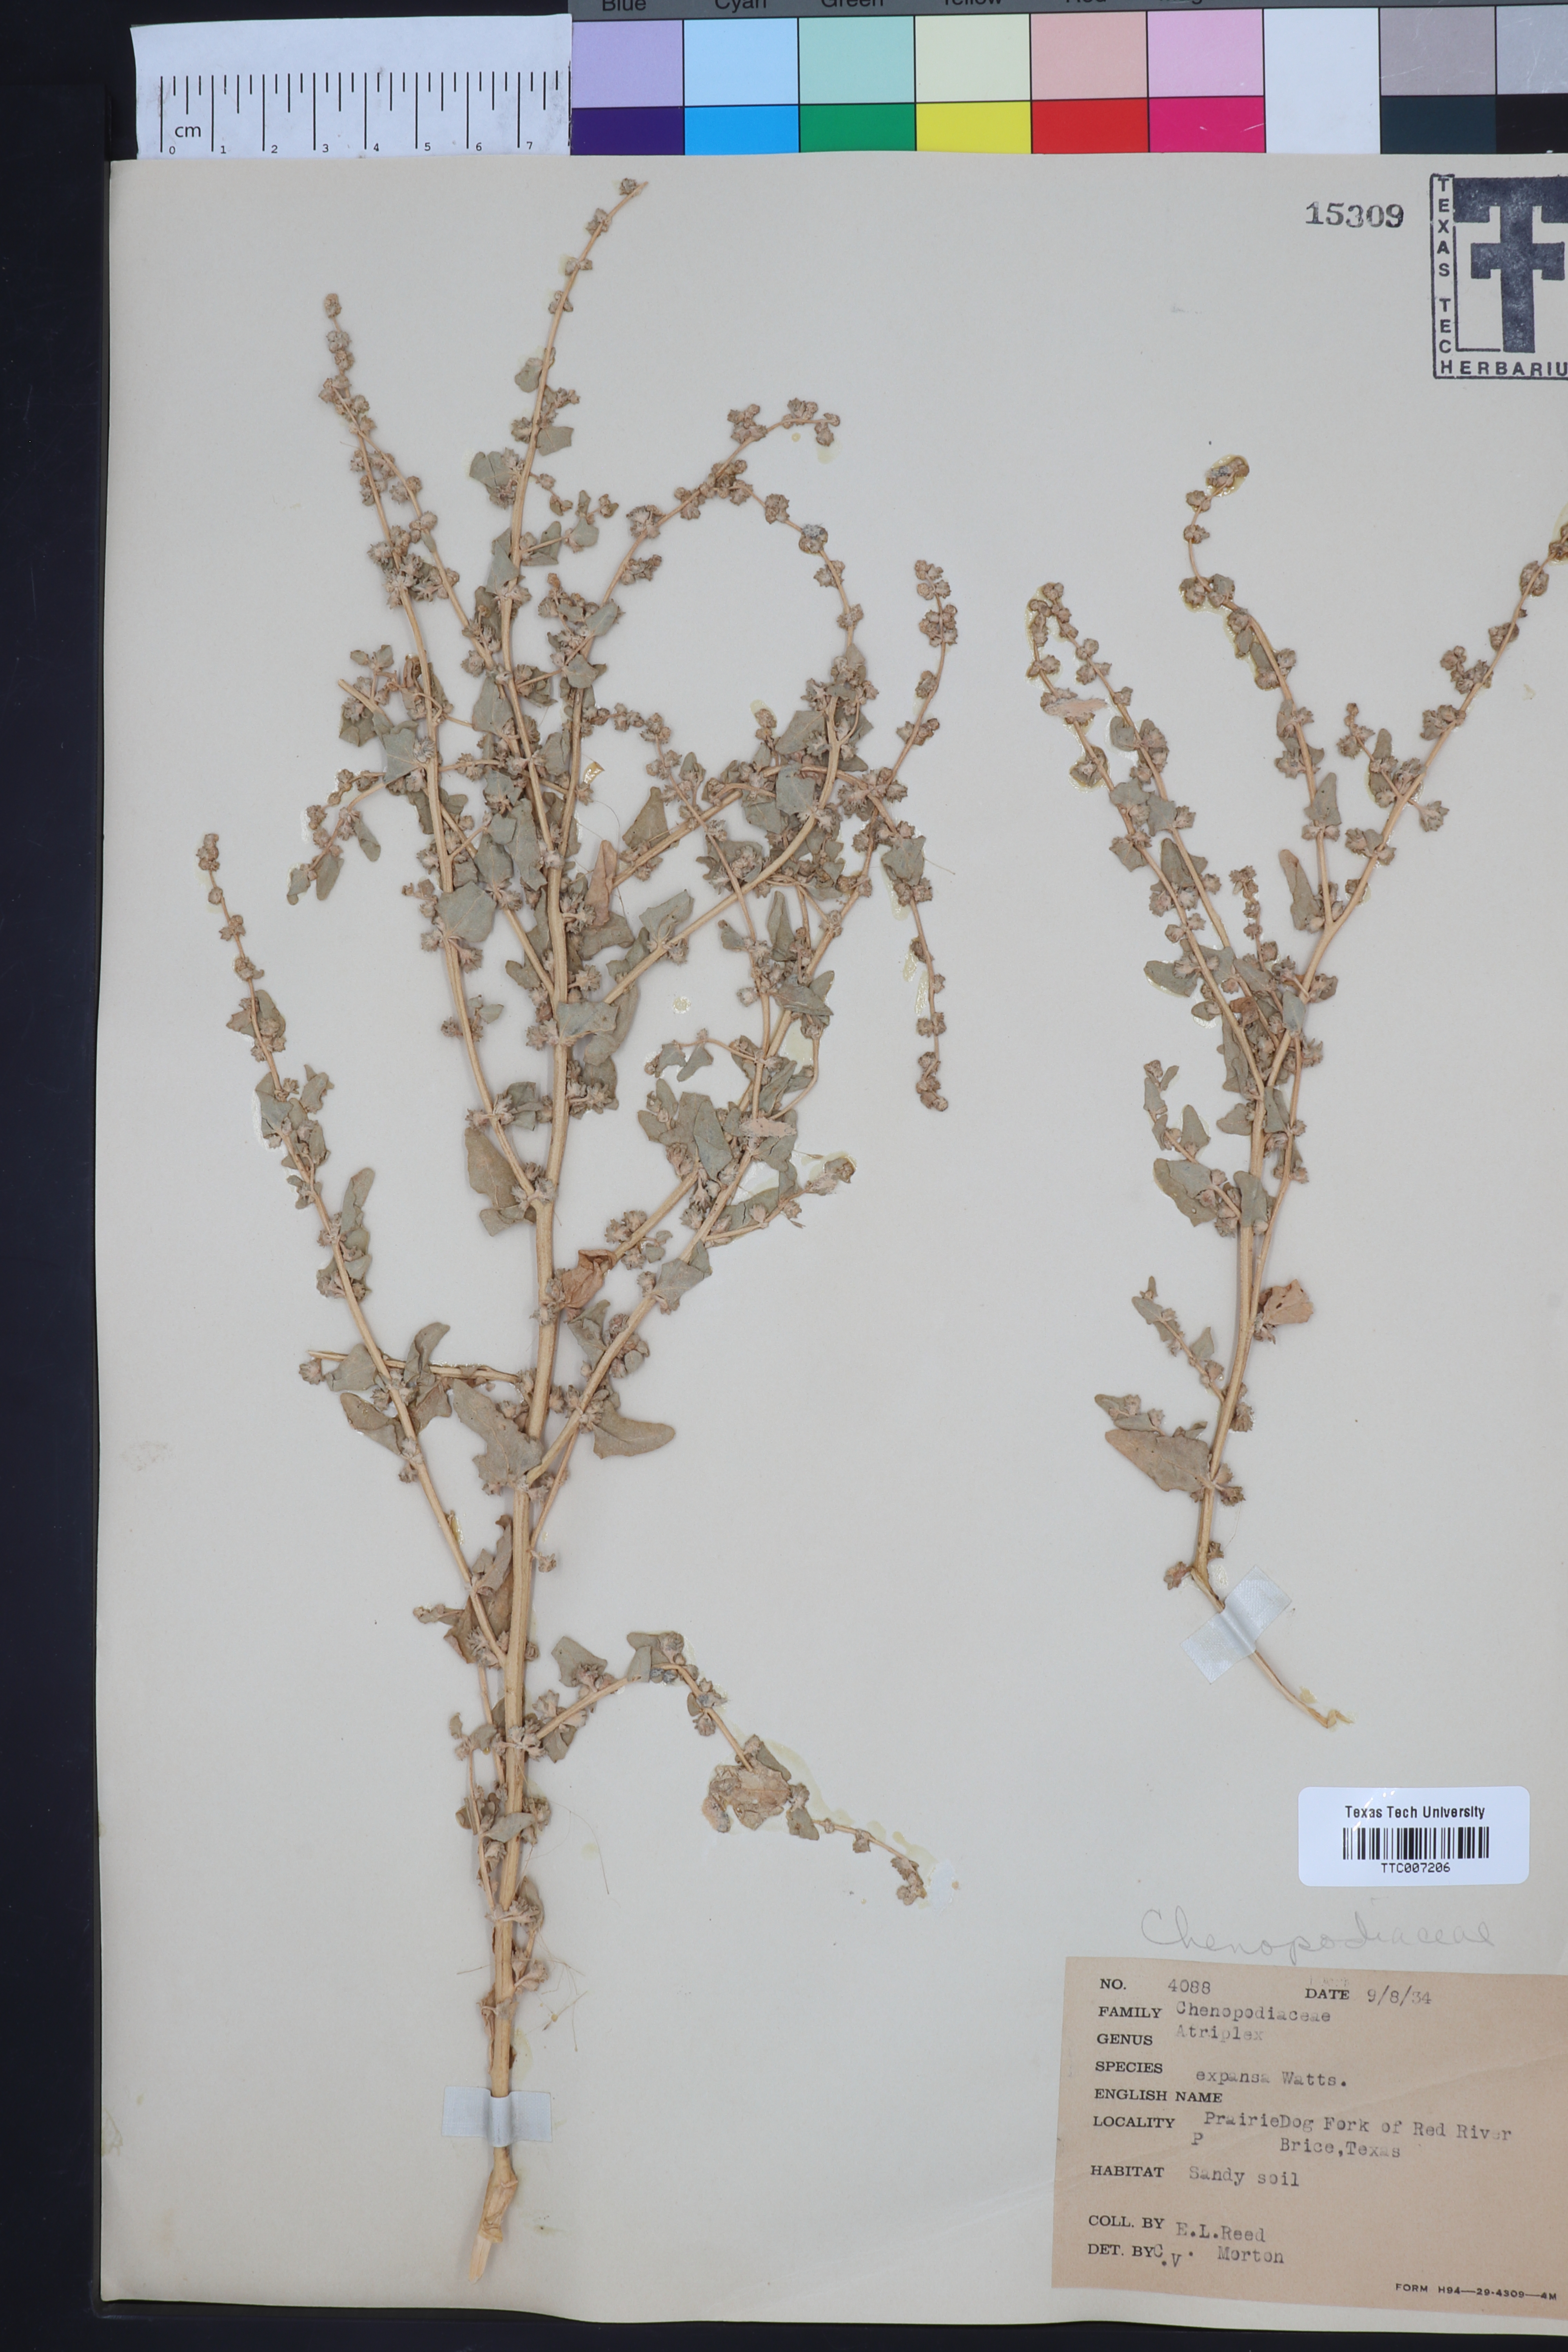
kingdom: Plantae
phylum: Tracheophyta
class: Magnoliopsida
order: Caryophyllales
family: Amaranthaceae
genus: Atriplex
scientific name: Atriplex argentea
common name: Silverscale
